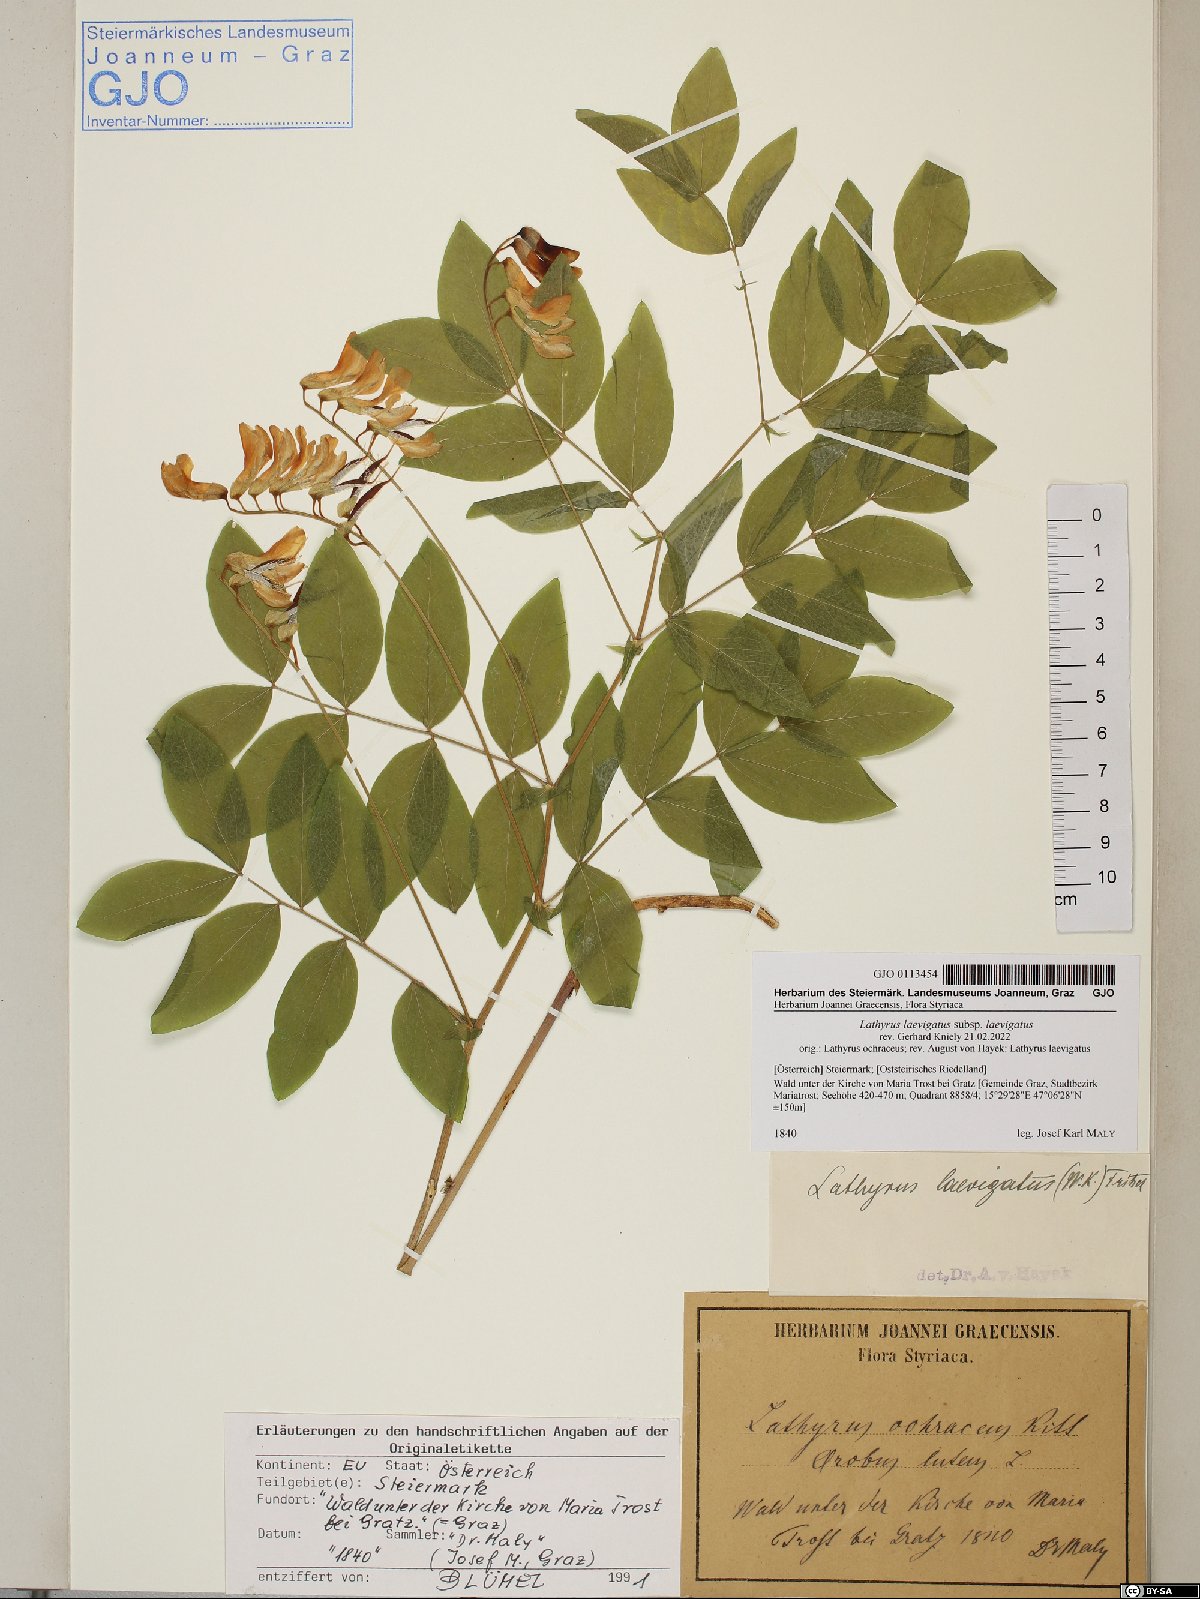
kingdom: Plantae
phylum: Tracheophyta
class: Magnoliopsida
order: Fabales
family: Fabaceae
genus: Lathyrus
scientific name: Lathyrus laevigatus
